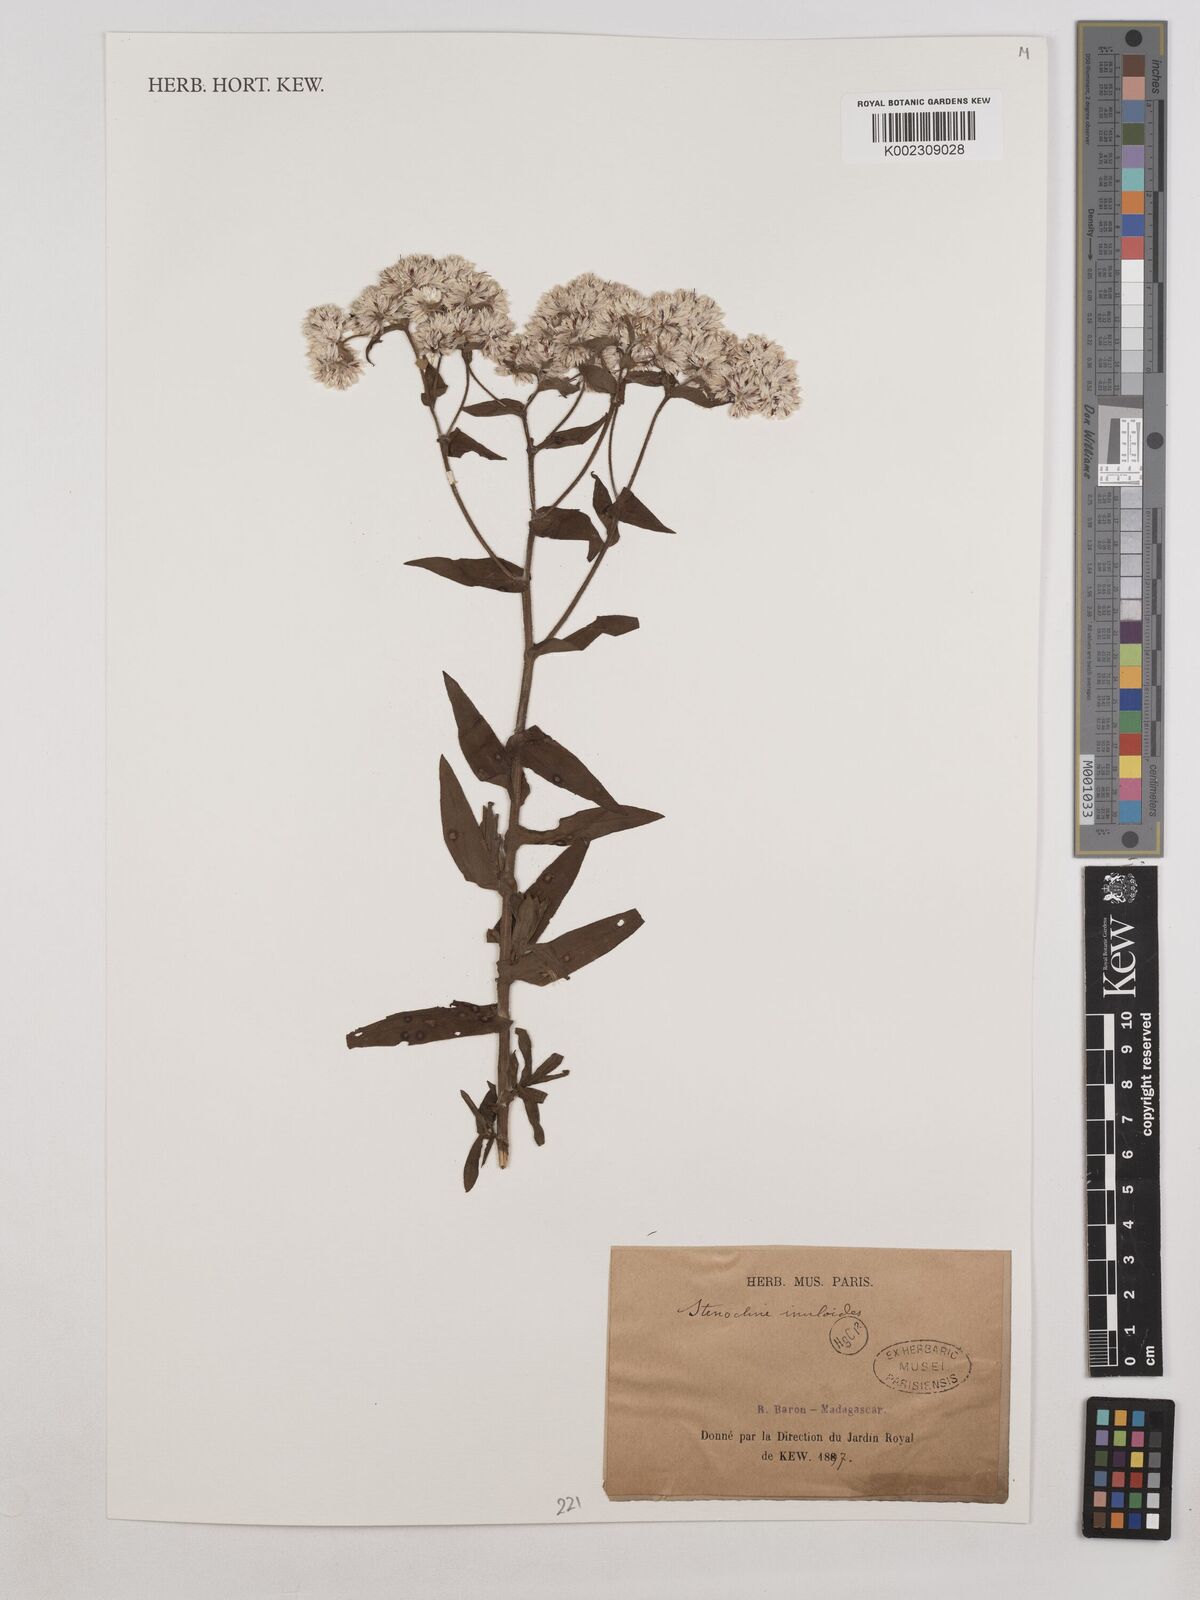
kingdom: Plantae
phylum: Tracheophyta
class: Magnoliopsida
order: Asterales
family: Asteraceae
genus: Stenocline
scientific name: Stenocline inuloides
